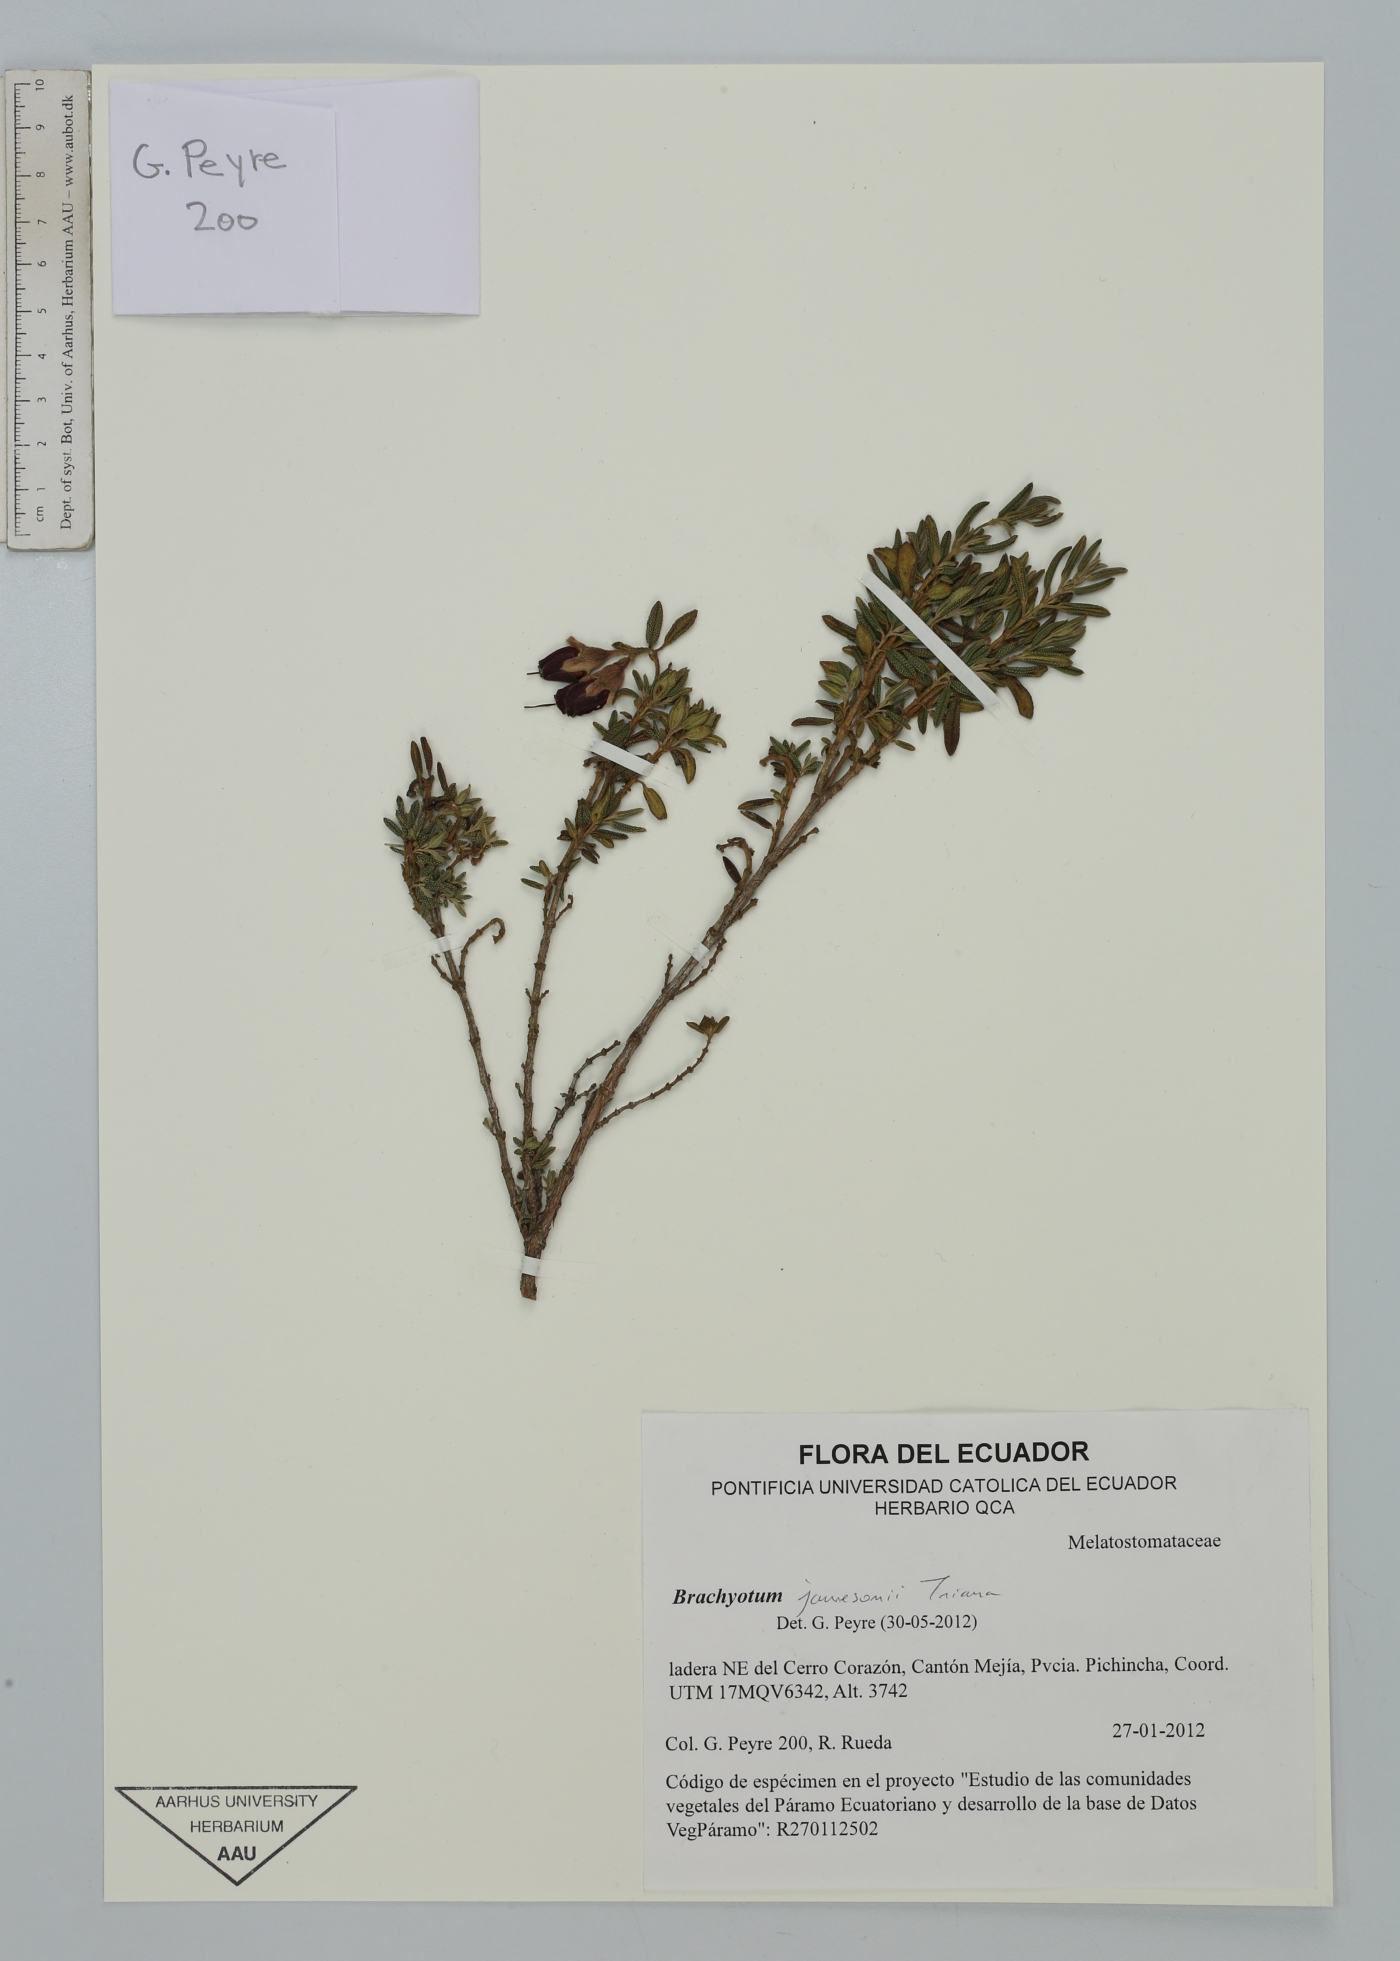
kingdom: Plantae
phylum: Tracheophyta
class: Magnoliopsida
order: Myrtales
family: Melastomataceae
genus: Brachyotum
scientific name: Brachyotum jamesonii
